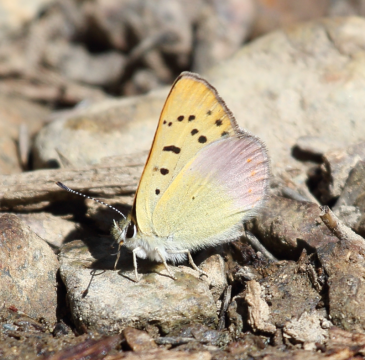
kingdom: Animalia
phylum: Arthropoda
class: Insecta
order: Lepidoptera
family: Lycaenidae
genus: Lycaena
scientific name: Lycaena nivalis
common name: Lilac-bordered Copper
